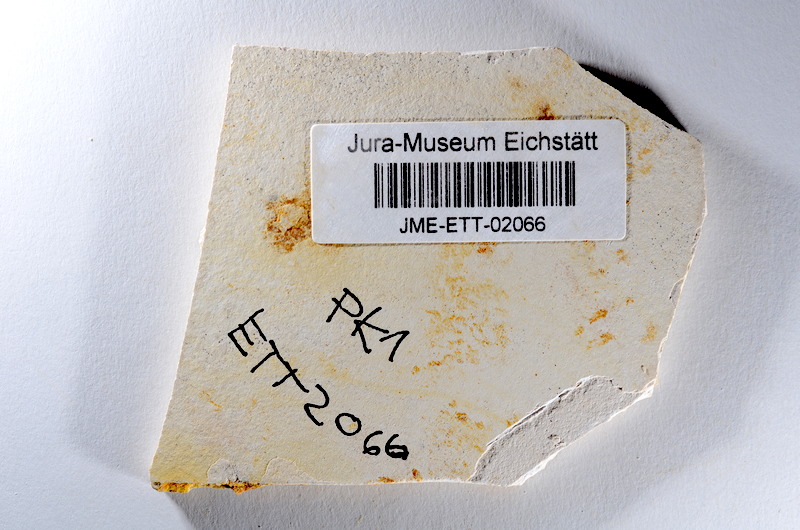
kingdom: Animalia
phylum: Chordata
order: Salmoniformes
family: Orthogonikleithridae
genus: Orthogonikleithrus
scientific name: Orthogonikleithrus hoelli
